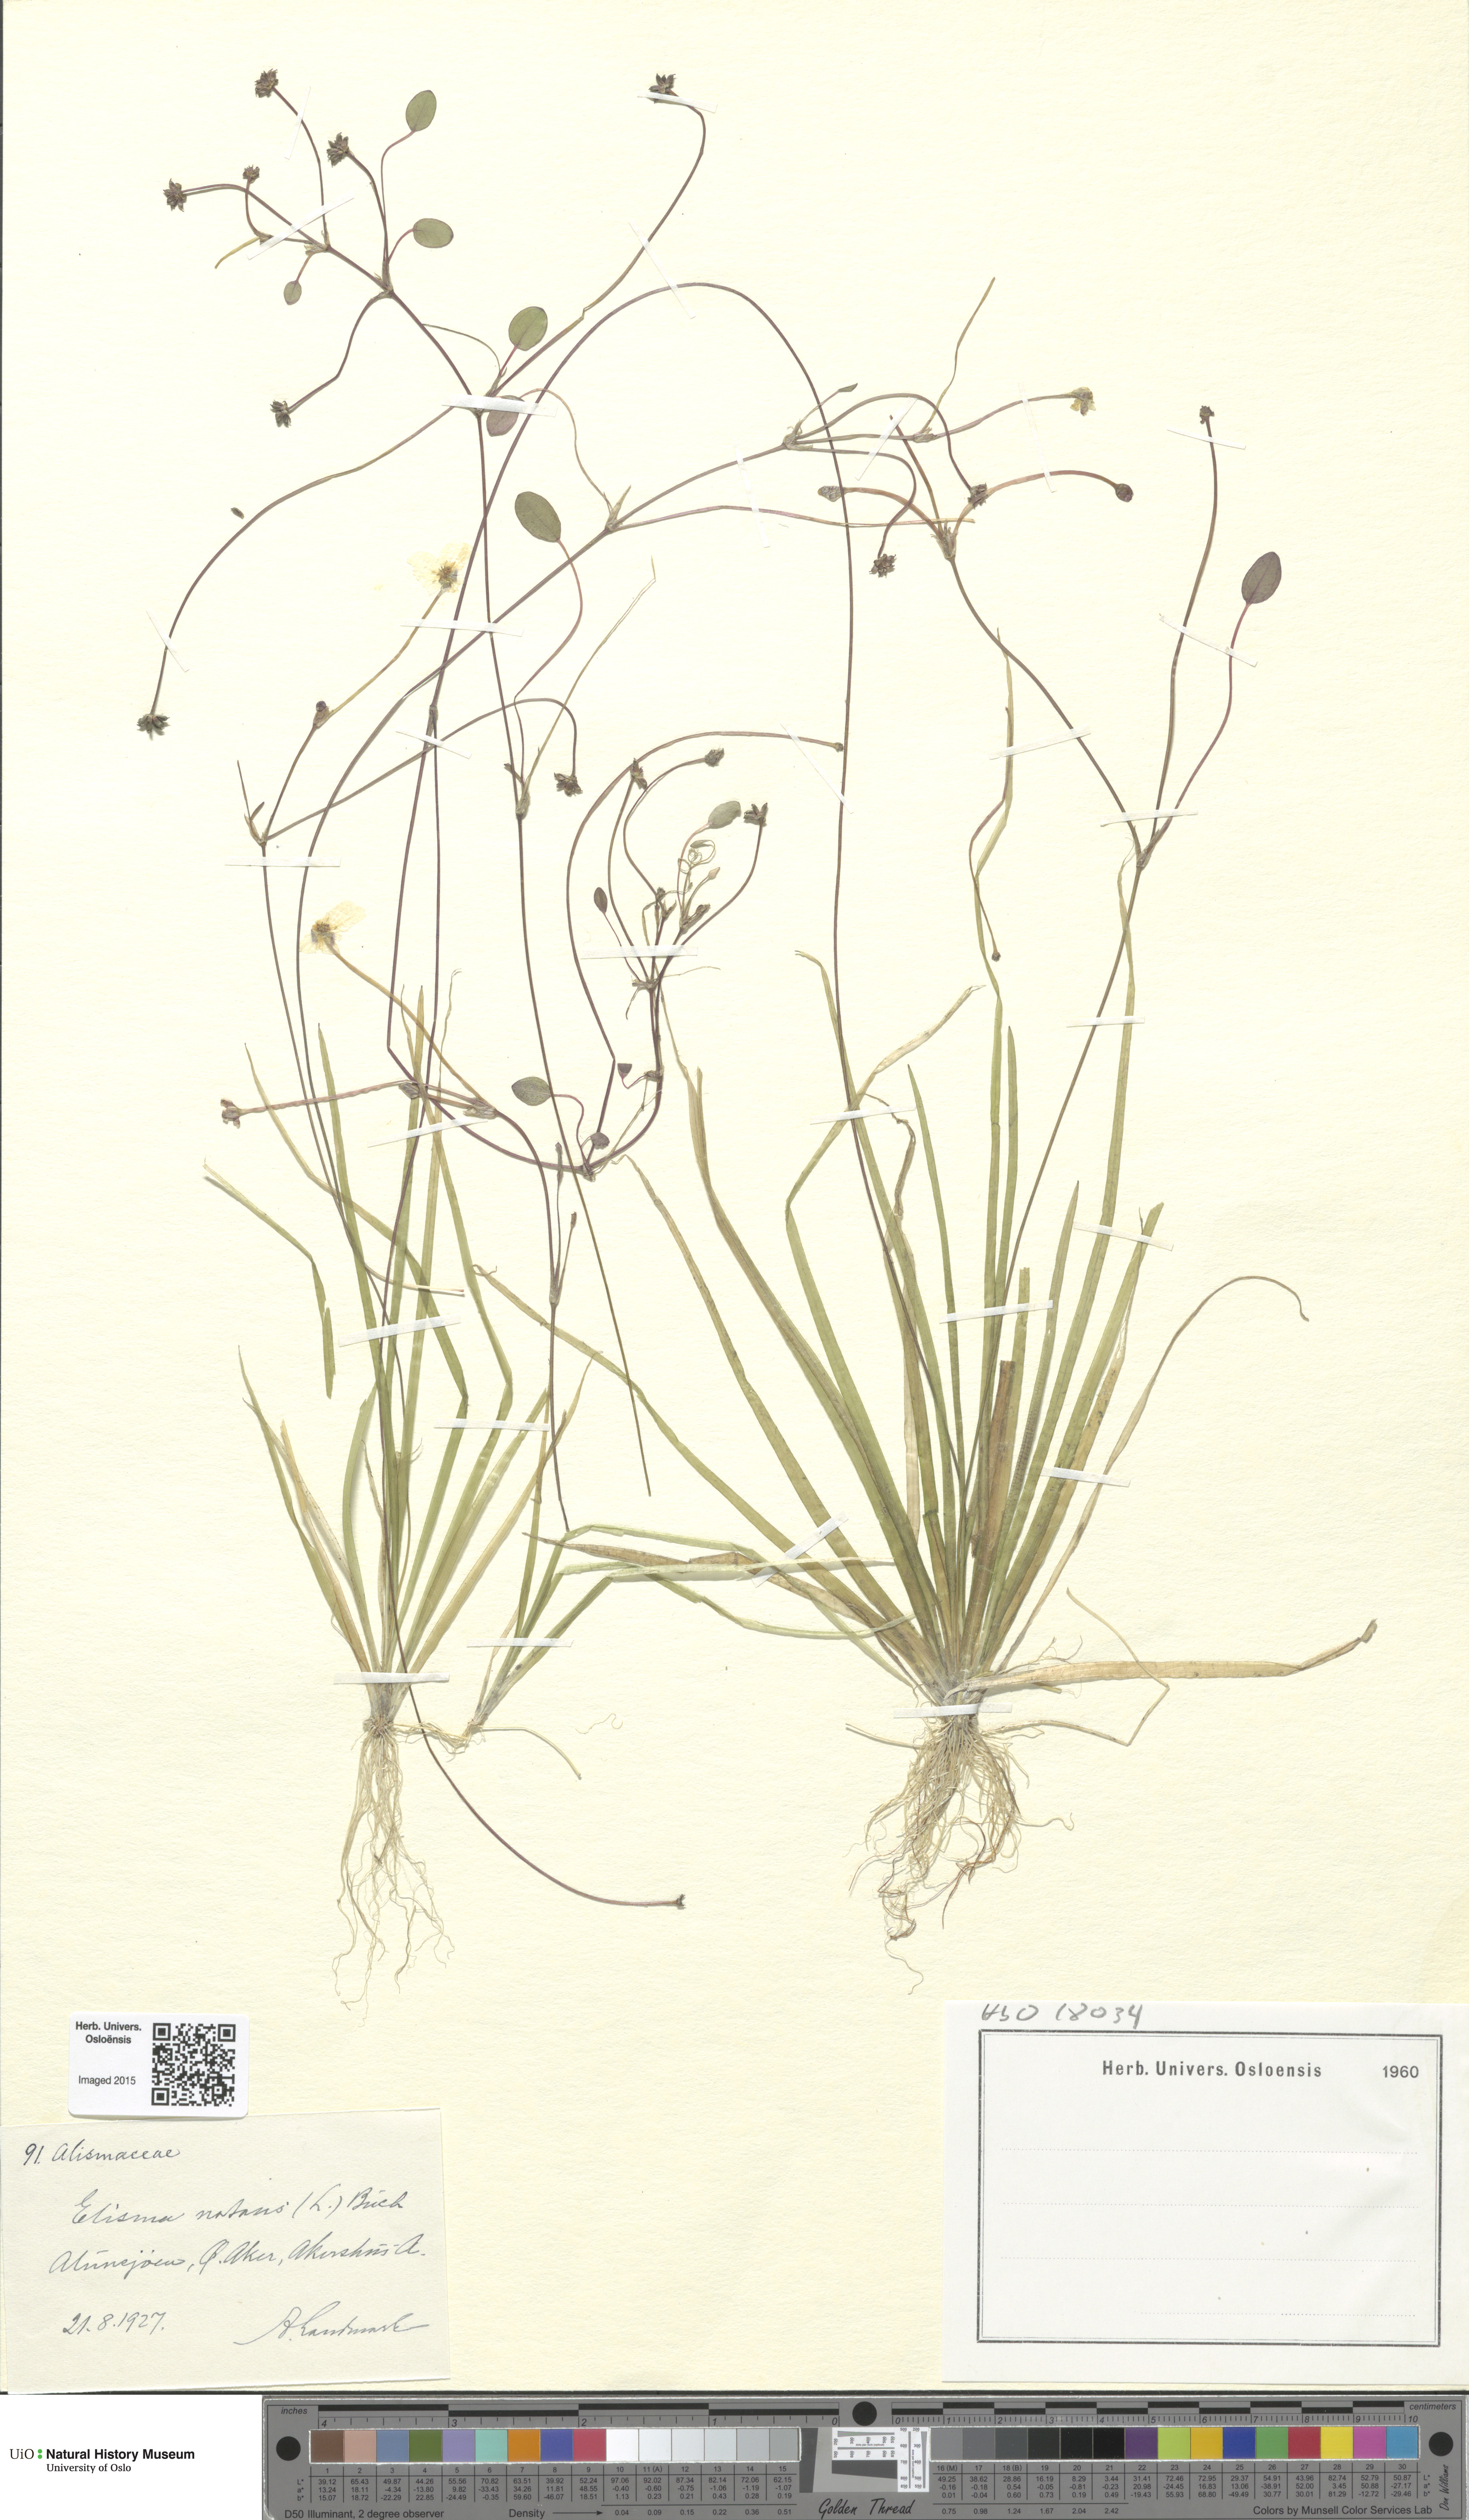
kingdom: Plantae
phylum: Tracheophyta
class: Liliopsida
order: Alismatales
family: Alismataceae
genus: Luronium
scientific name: Luronium natans
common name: Floating water-plantain
